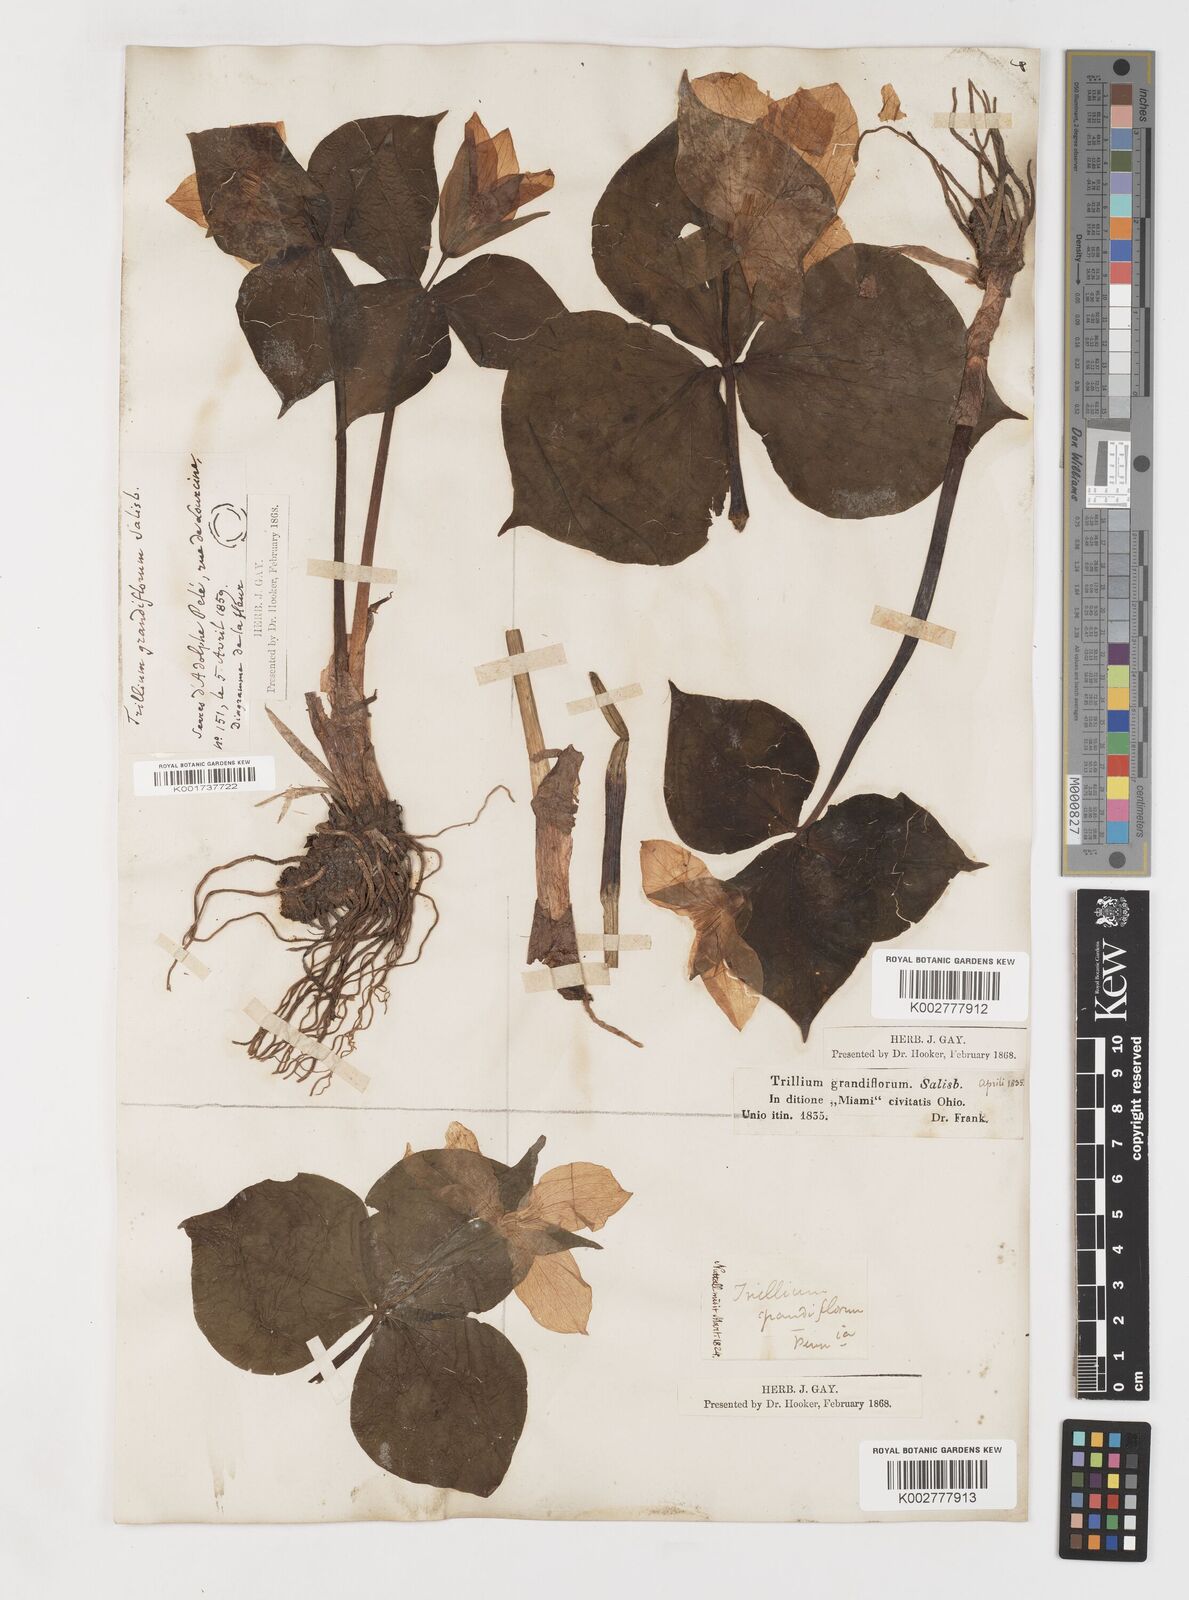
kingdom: Plantae
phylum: Tracheophyta
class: Liliopsida
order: Liliales
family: Melanthiaceae
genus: Trillium
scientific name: Trillium grandiflorum
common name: Great white trillium
